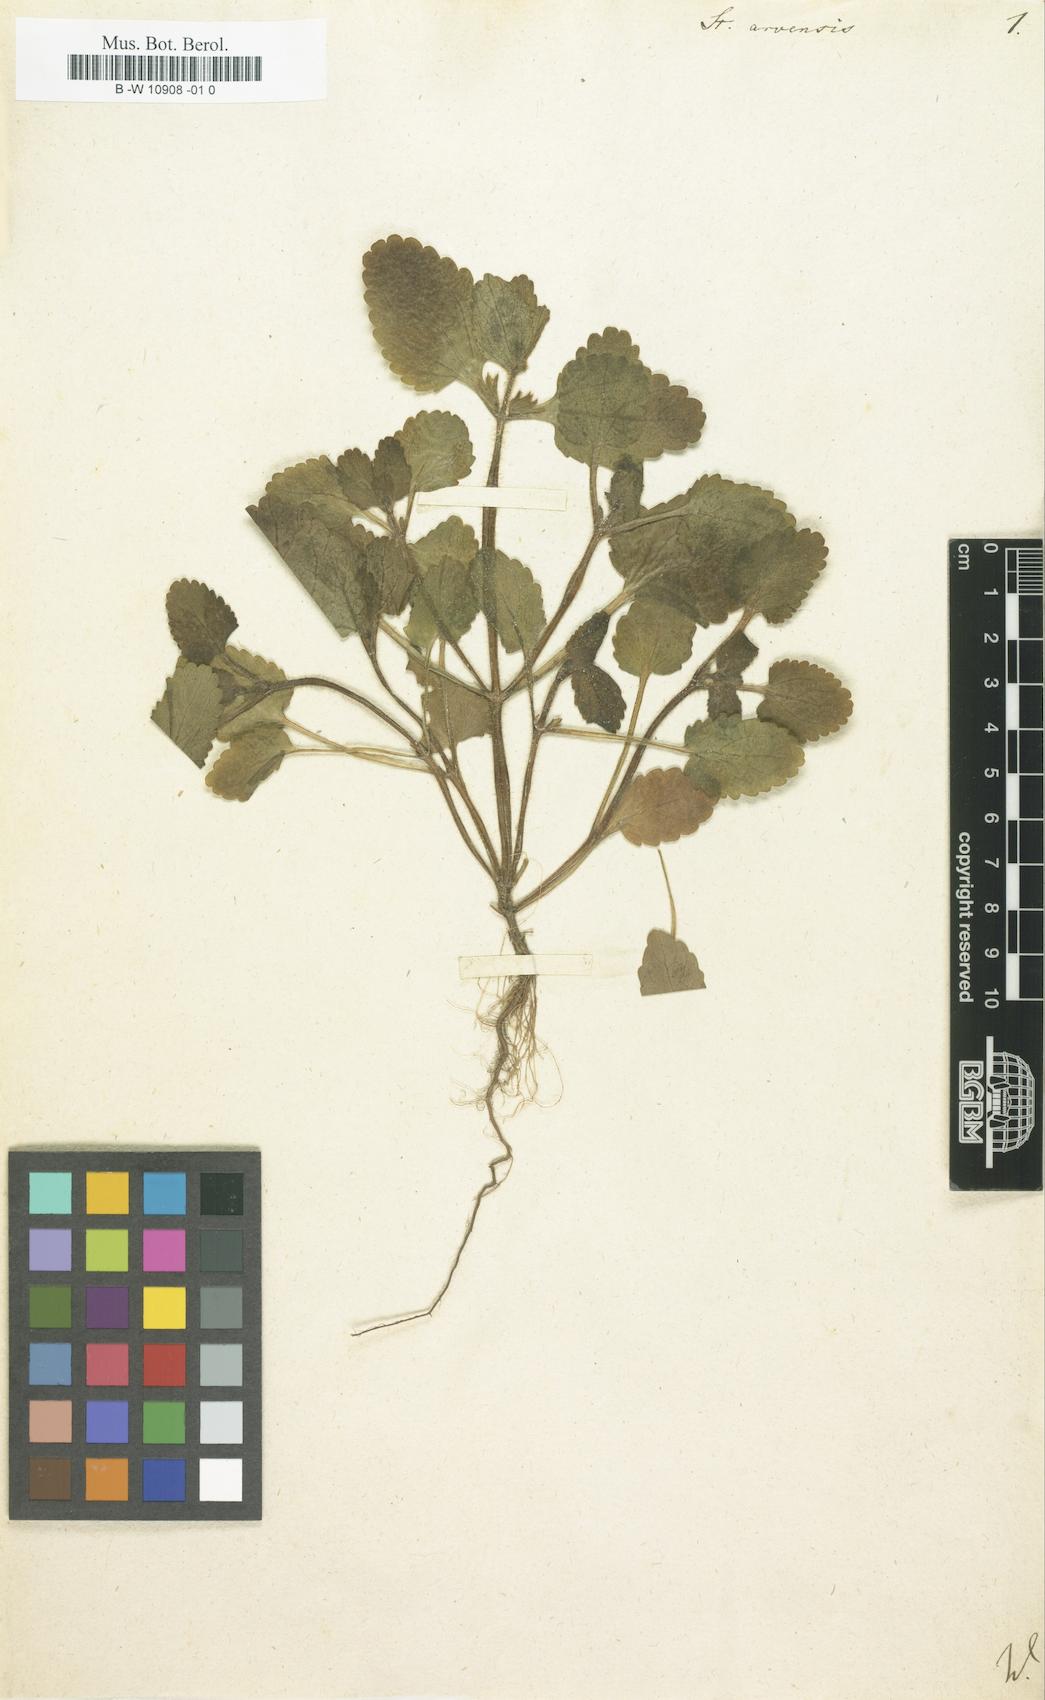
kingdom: Plantae
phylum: Tracheophyta
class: Magnoliopsida
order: Lamiales
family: Lamiaceae
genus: Stachys
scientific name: Stachys arvensis
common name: Field woundwort
